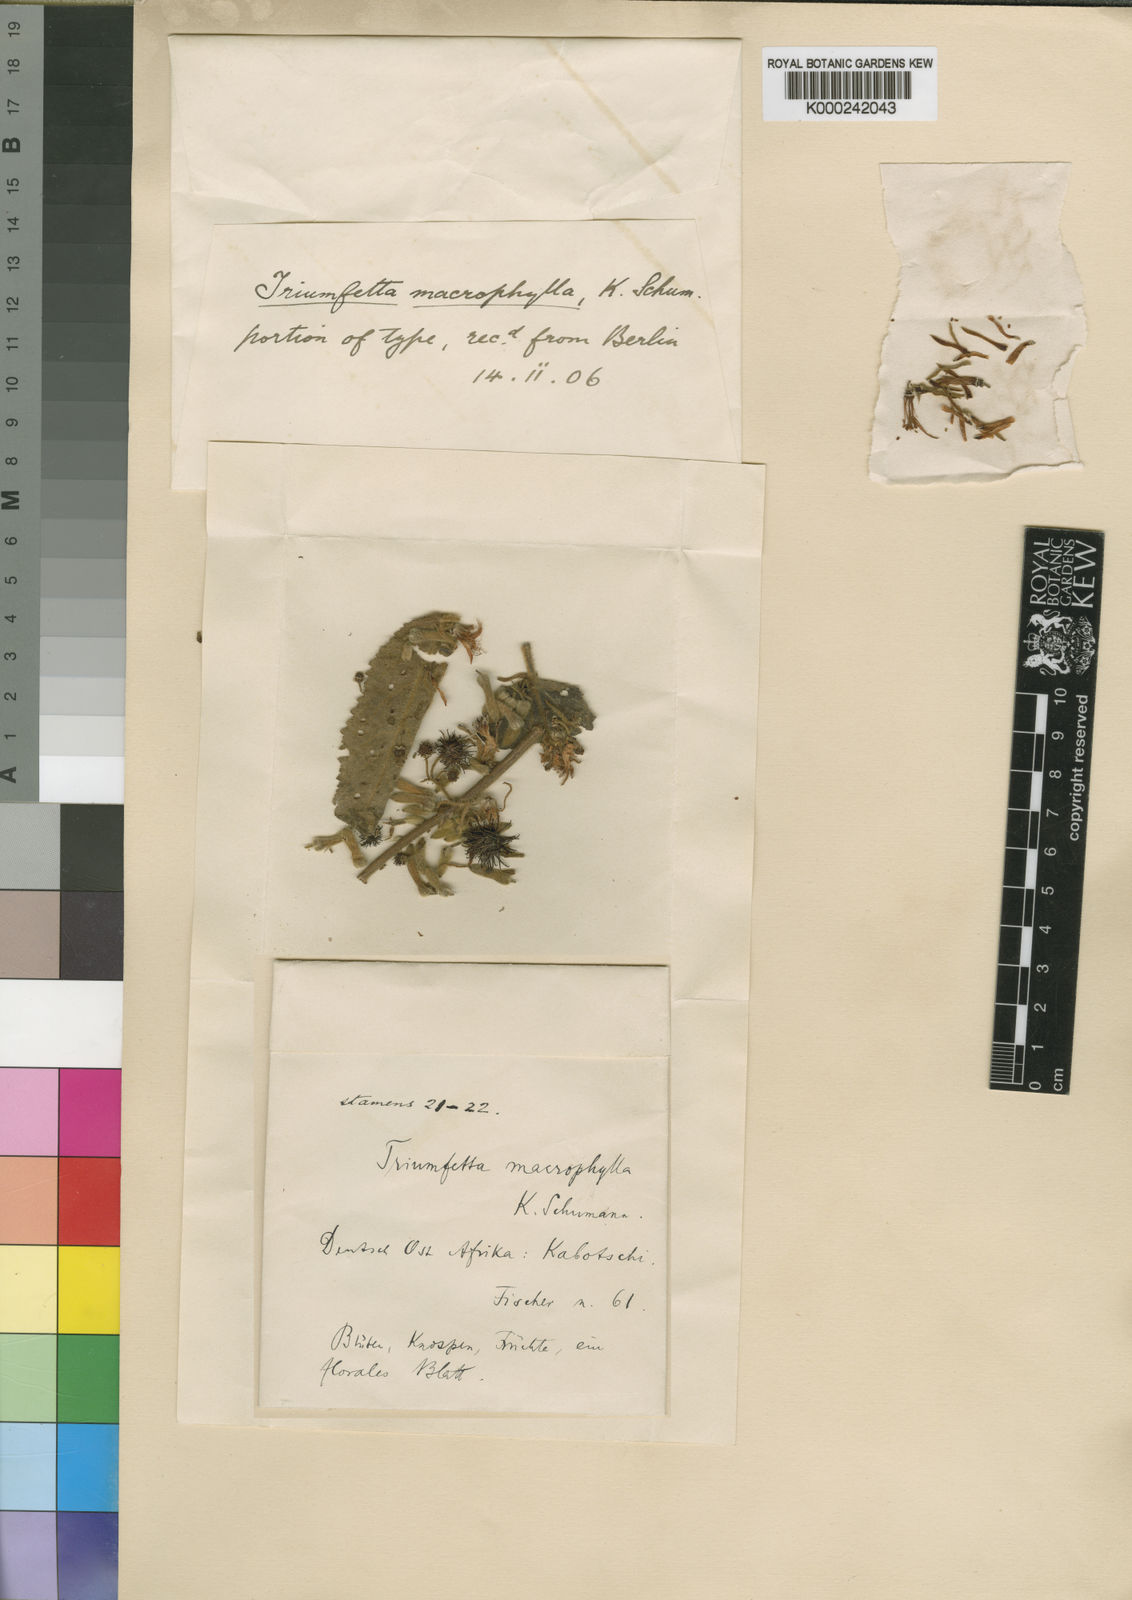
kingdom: Plantae
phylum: Tracheophyta
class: Magnoliopsida
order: Malvales
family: Malvaceae
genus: Triumfetta
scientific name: Triumfetta brachyceras
